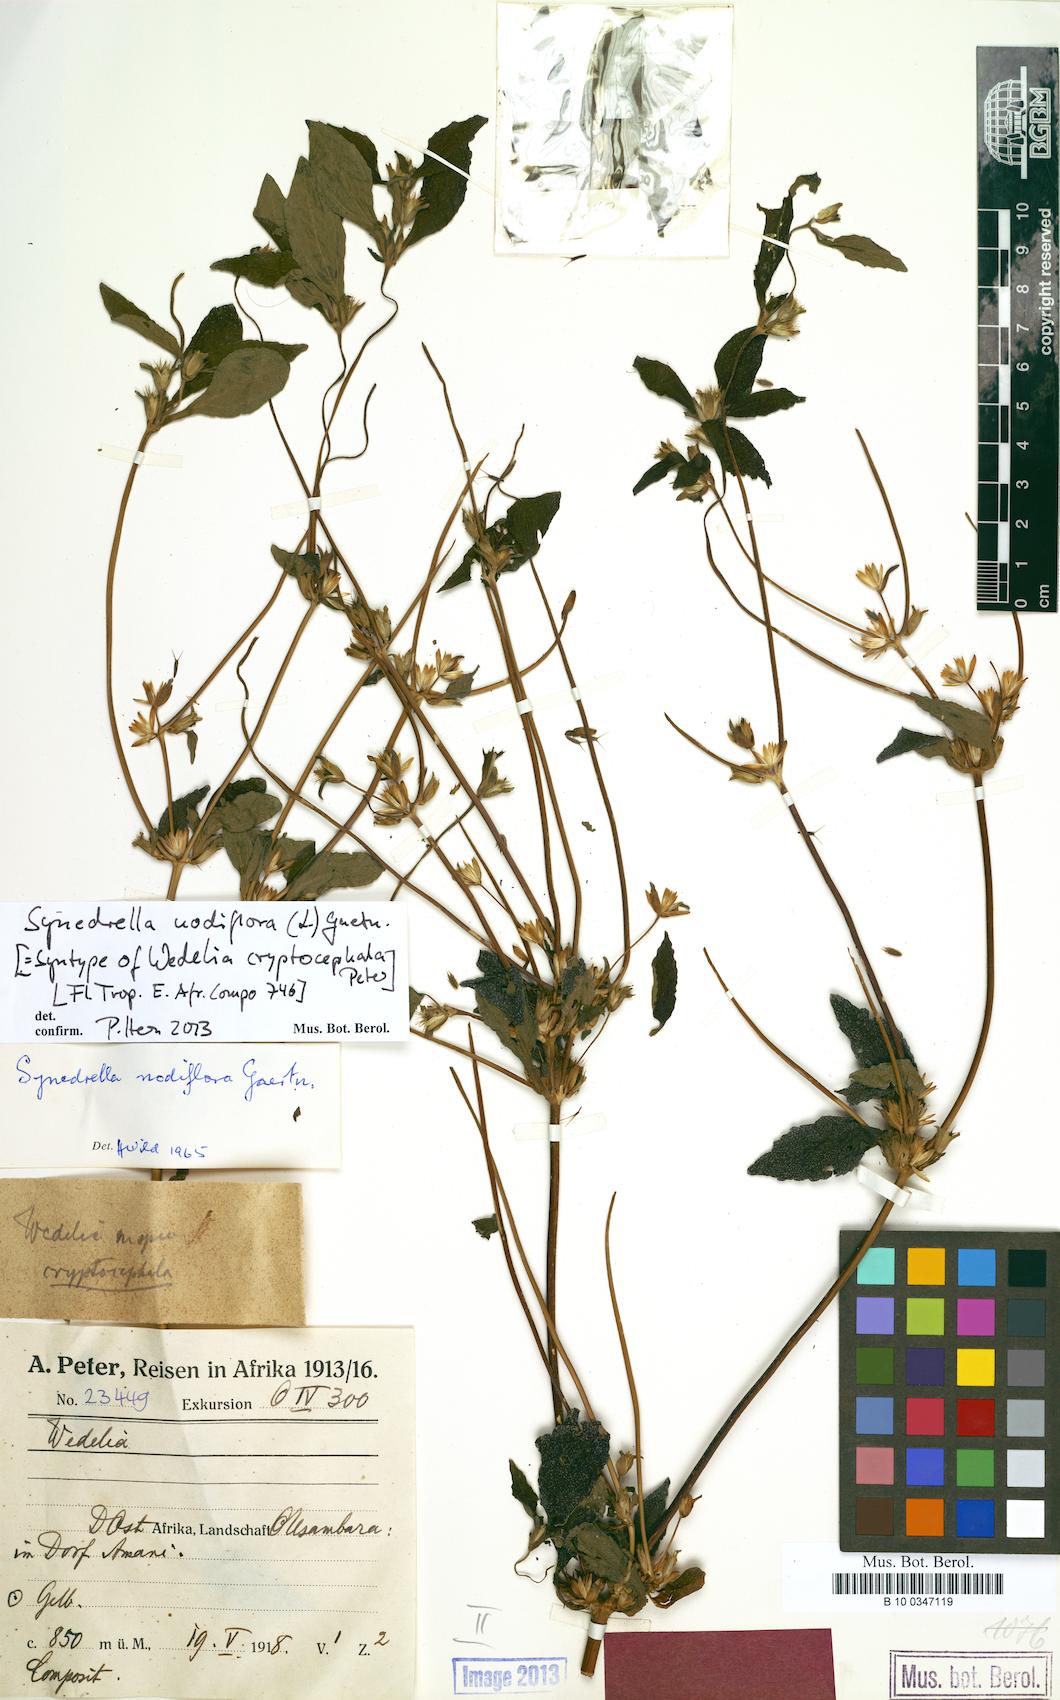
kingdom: Plantae
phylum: Tracheophyta
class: Magnoliopsida
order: Asterales
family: Asteraceae
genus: Synedrella
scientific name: Synedrella nodiflora
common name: Nodeweed
